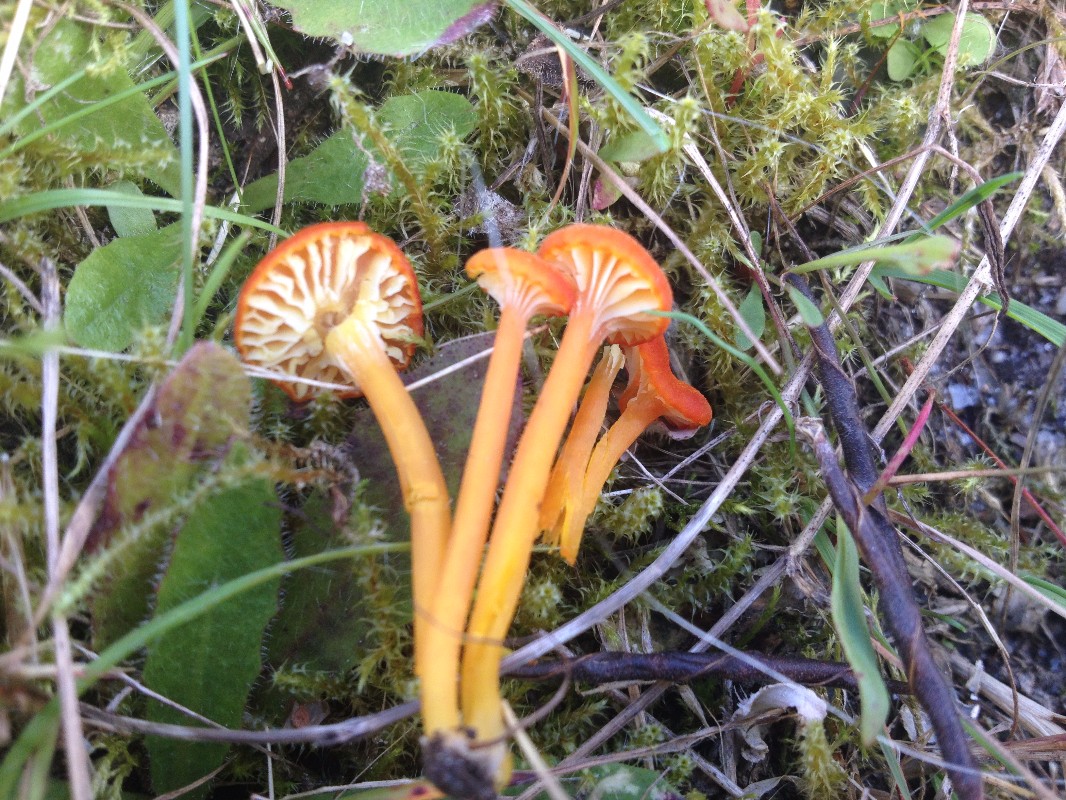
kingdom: Fungi
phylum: Basidiomycota
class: Agaricomycetes
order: Agaricales
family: Hygrophoraceae
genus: Hygrocybe
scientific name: Hygrocybe cantharellus
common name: kantarel-vokshat
